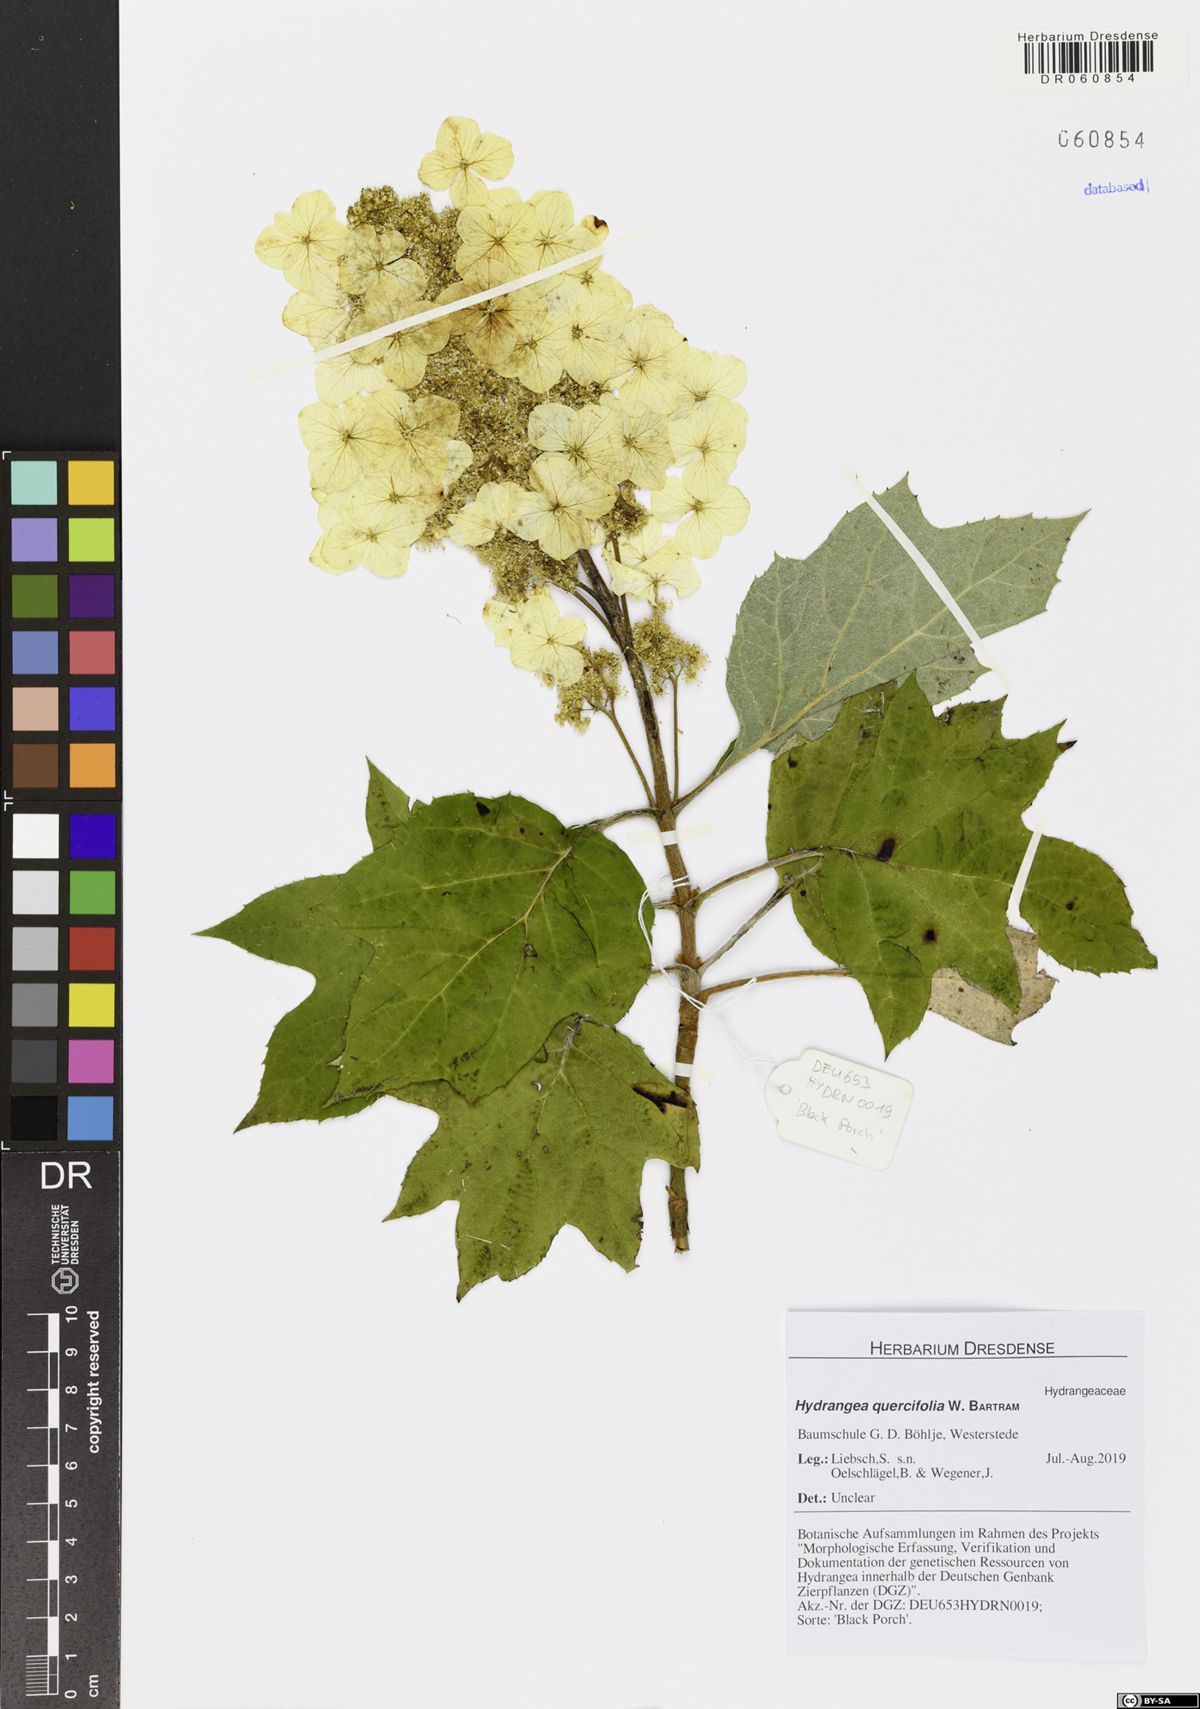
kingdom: Plantae
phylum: Tracheophyta
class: Magnoliopsida
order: Cornales
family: Hydrangeaceae
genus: Hydrangea
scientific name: Hydrangea quercifolia
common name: Oak-leaf hydrangea
